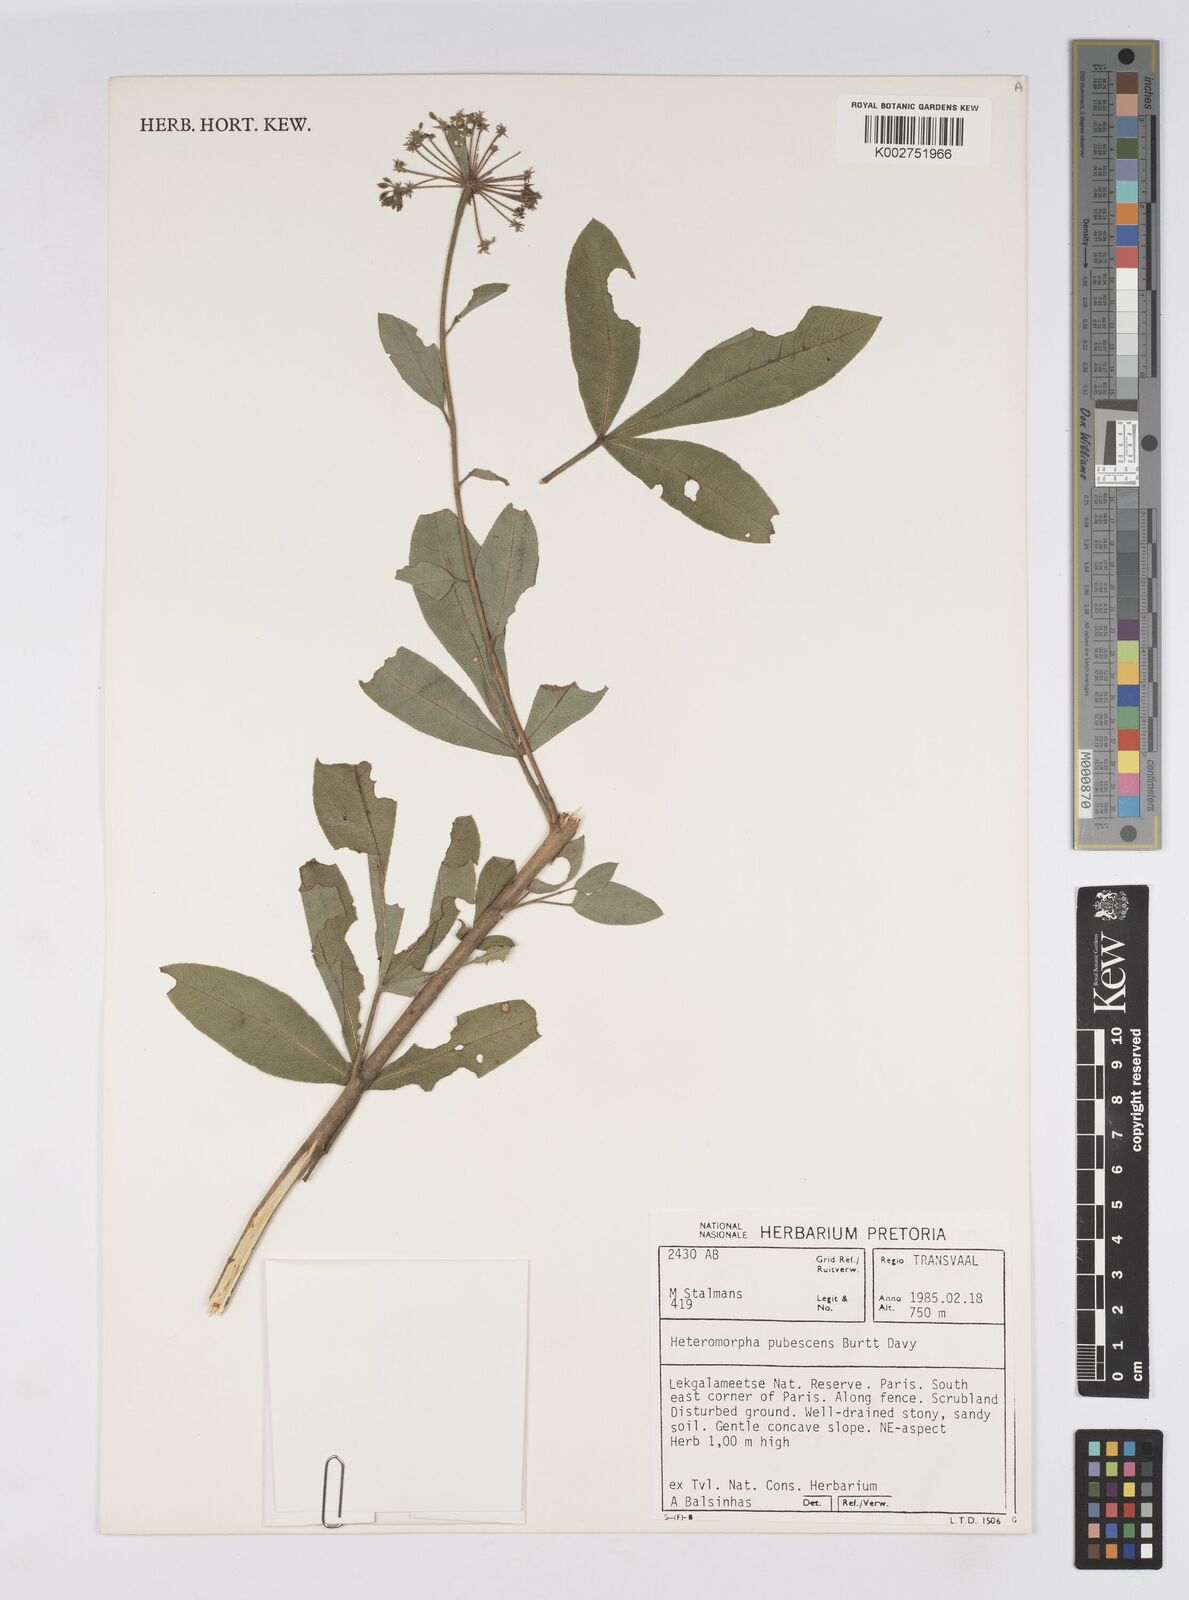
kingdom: Plantae
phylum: Tracheophyta
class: Magnoliopsida
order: Apiales
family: Apiaceae
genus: Heteromorpha
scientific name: Heteromorpha pubescens
